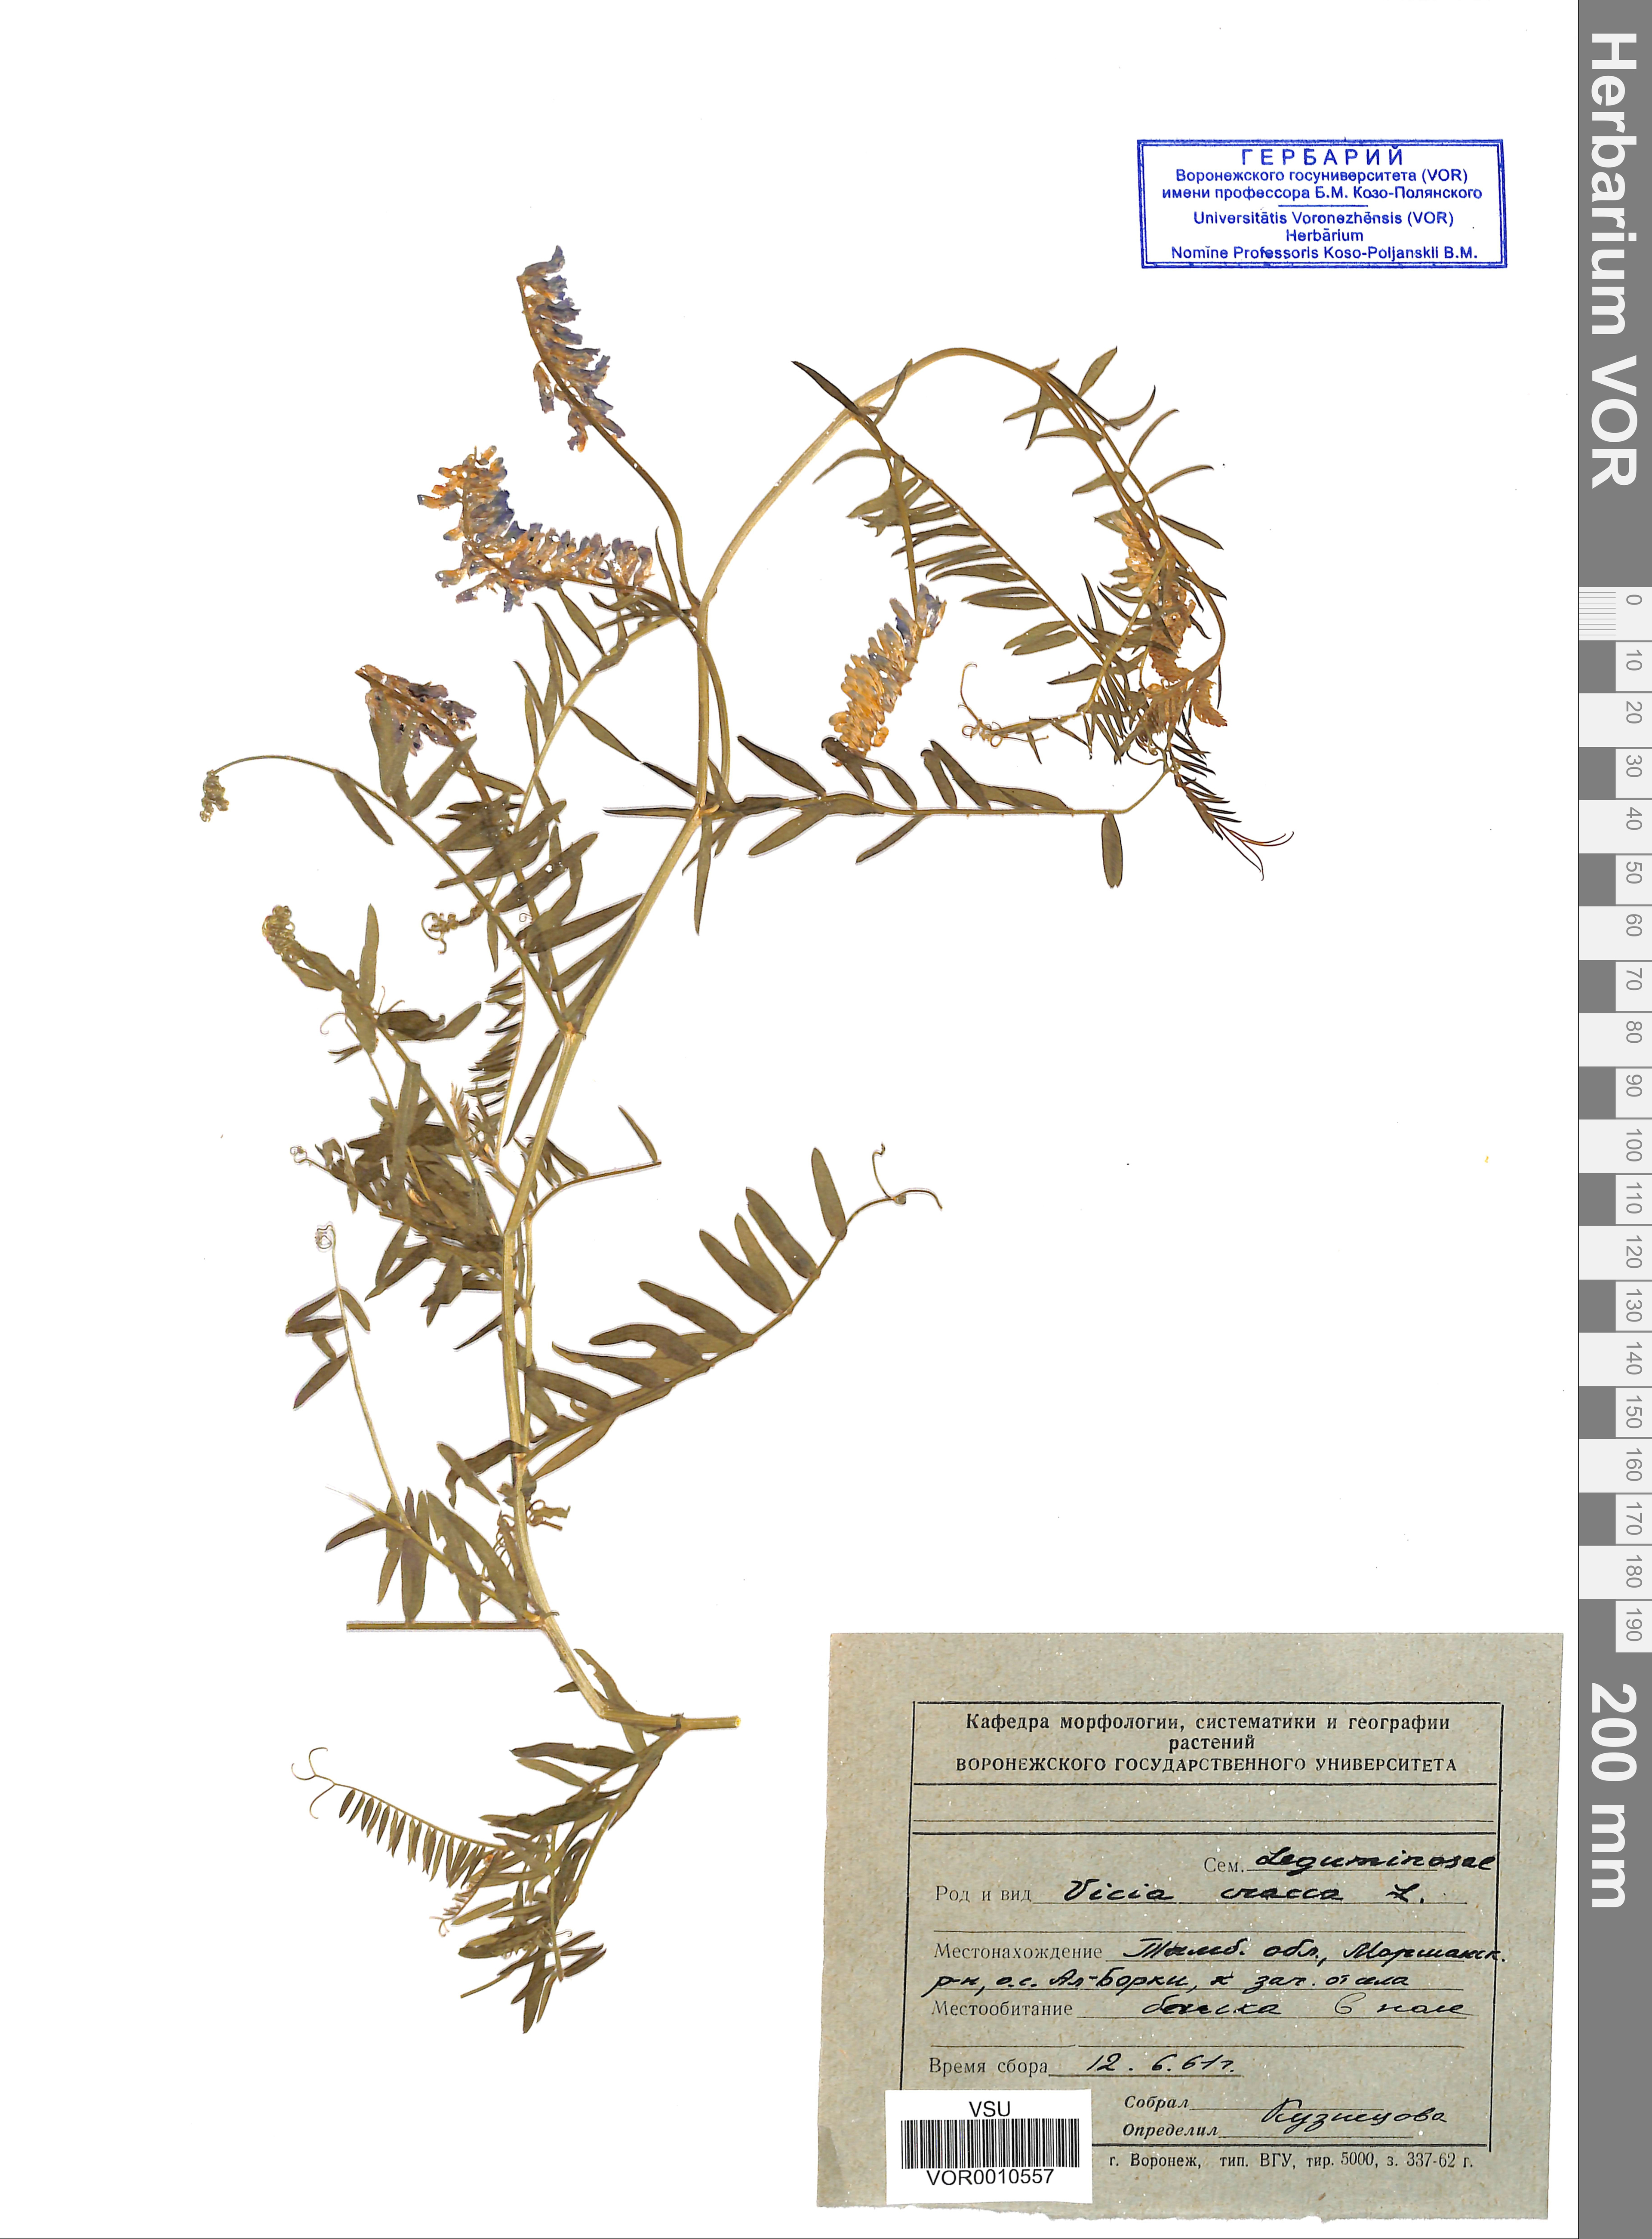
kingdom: Plantae
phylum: Tracheophyta
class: Magnoliopsida
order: Fabales
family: Fabaceae
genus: Vicia
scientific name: Vicia cracca
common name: Bird vetch
